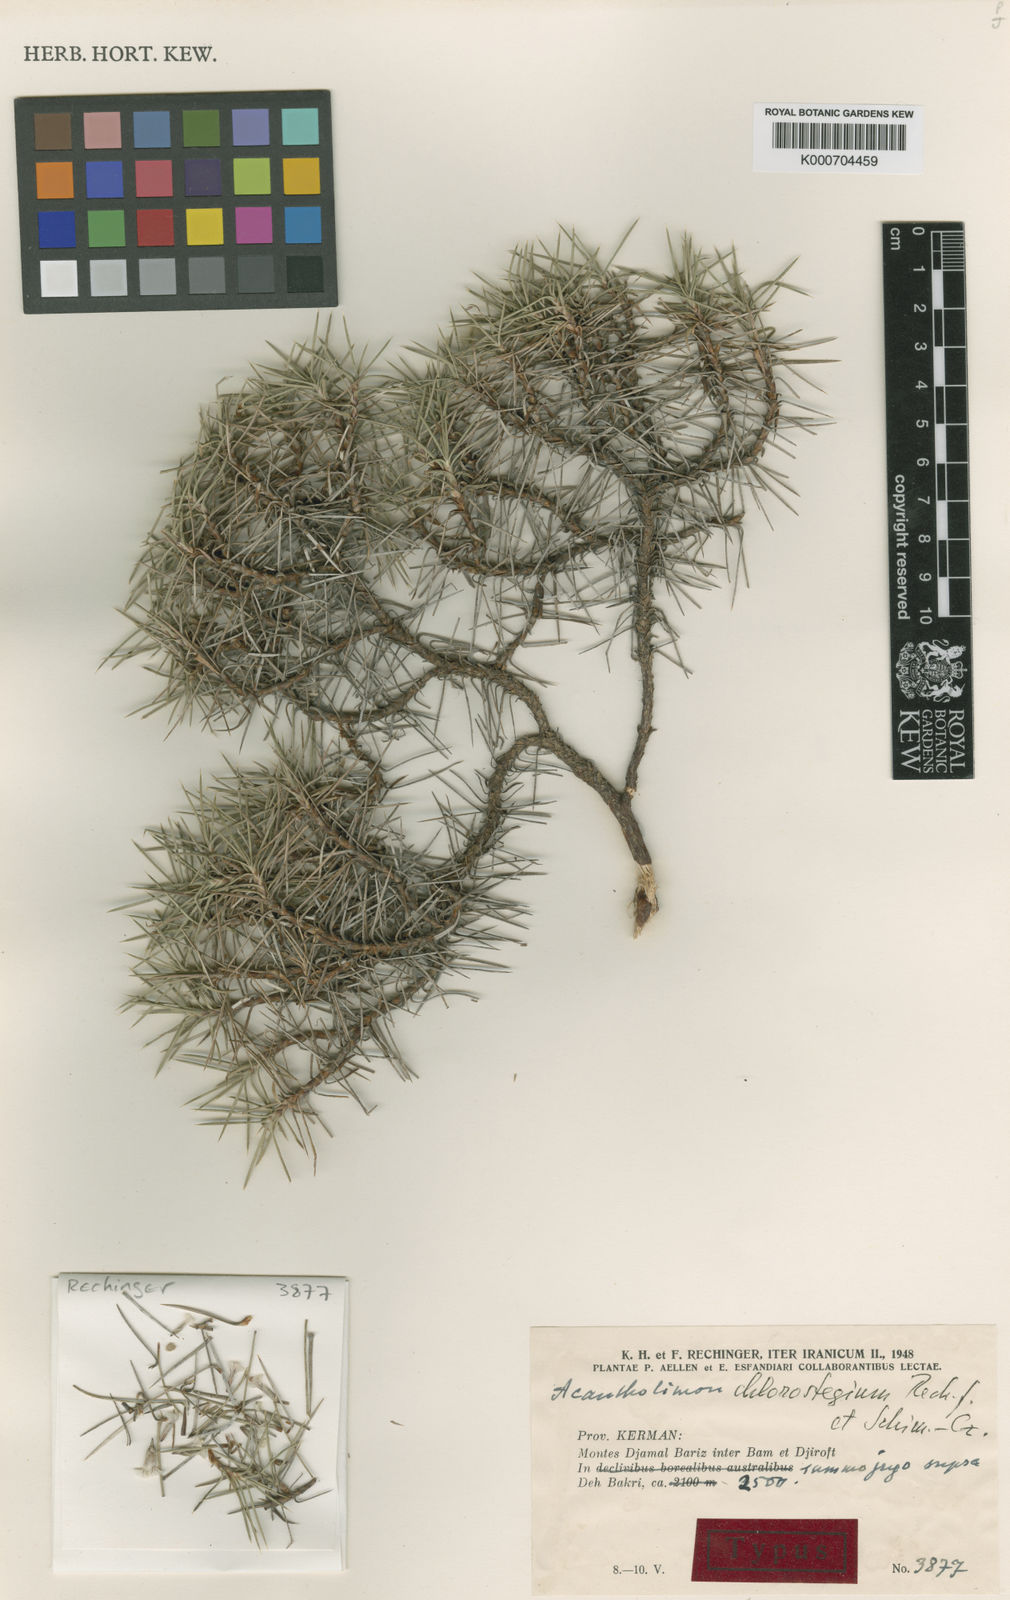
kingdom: Plantae
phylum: Tracheophyta
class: Magnoliopsida
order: Caryophyllales
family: Plumbaginaceae
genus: Acantholimon
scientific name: Acantholimon chlorostegium
